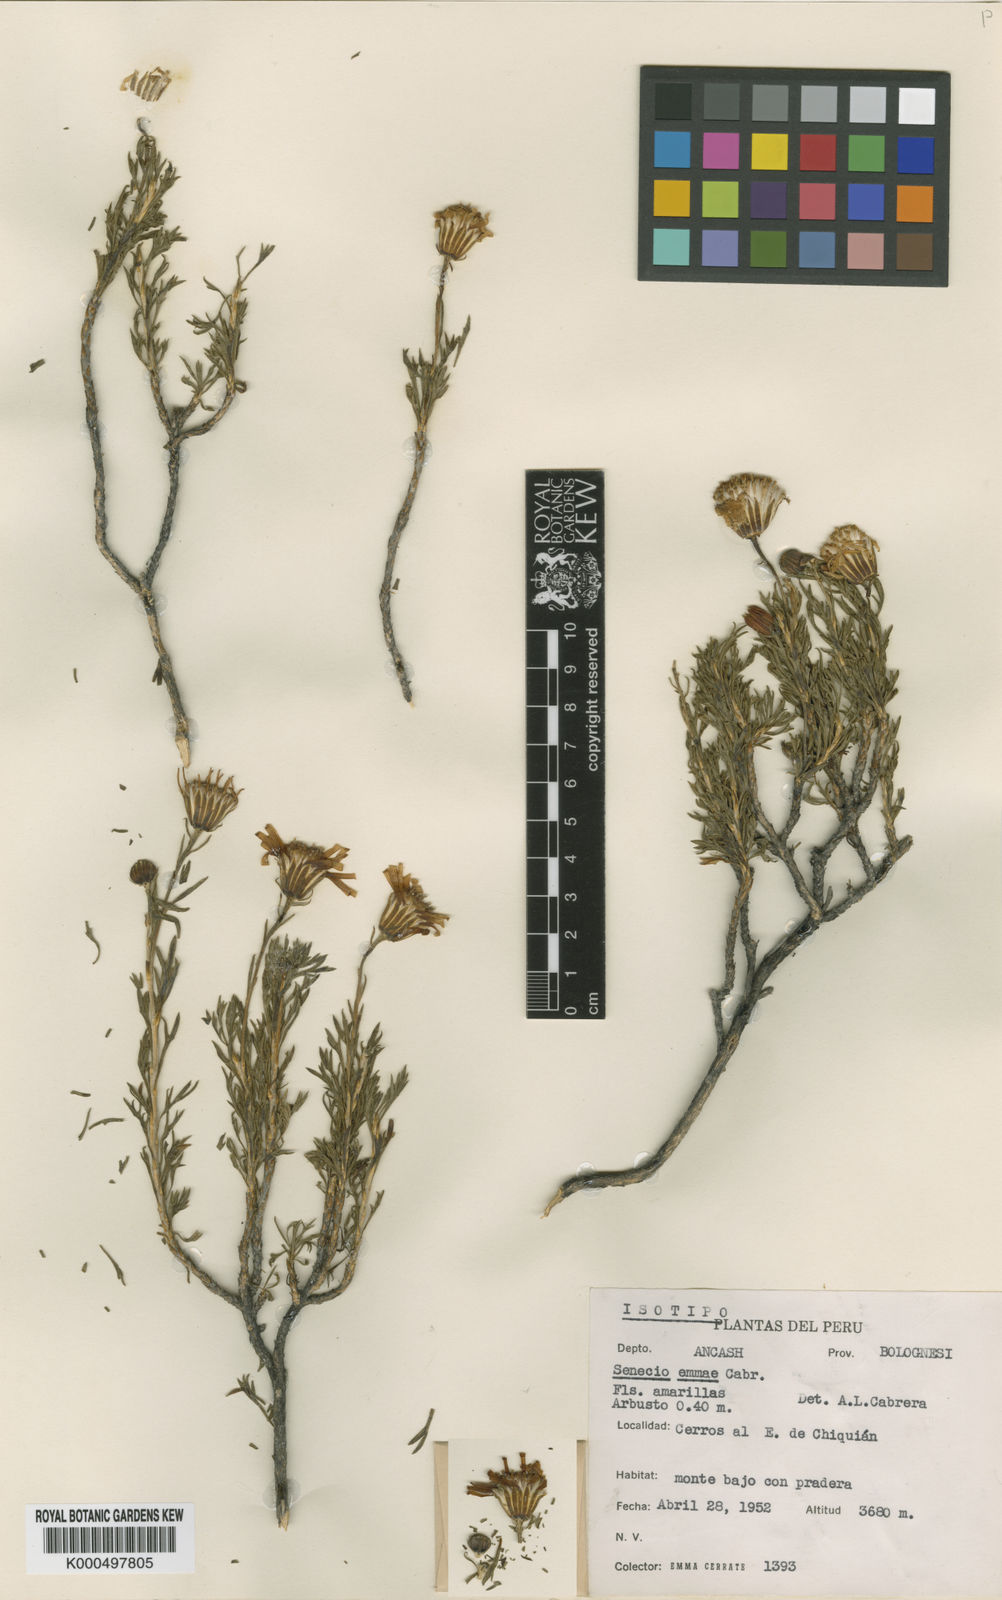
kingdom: Plantae
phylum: Tracheophyta
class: Magnoliopsida
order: Asterales
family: Asteraceae
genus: Senecio
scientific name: Senecio emmae
